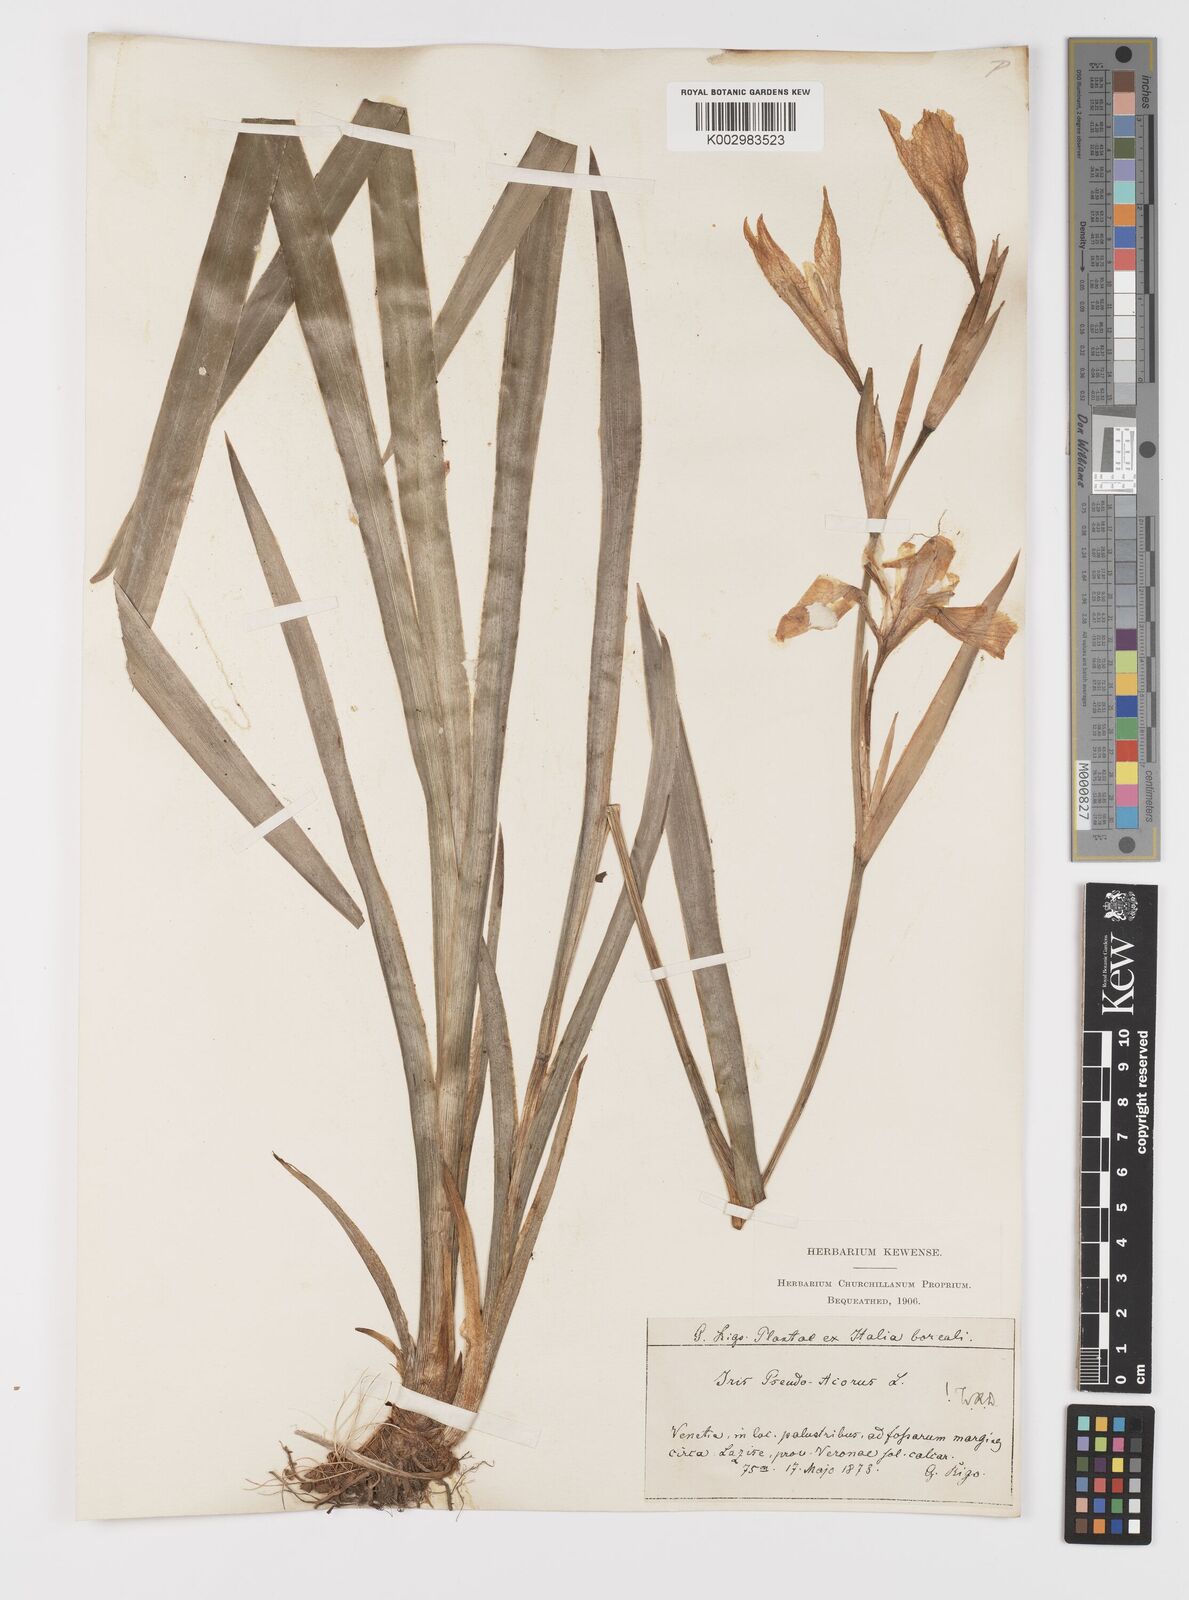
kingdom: Plantae
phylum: Tracheophyta
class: Liliopsida
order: Asparagales
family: Iridaceae
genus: Iris
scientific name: Iris pseudacorus
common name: Yellow flag
